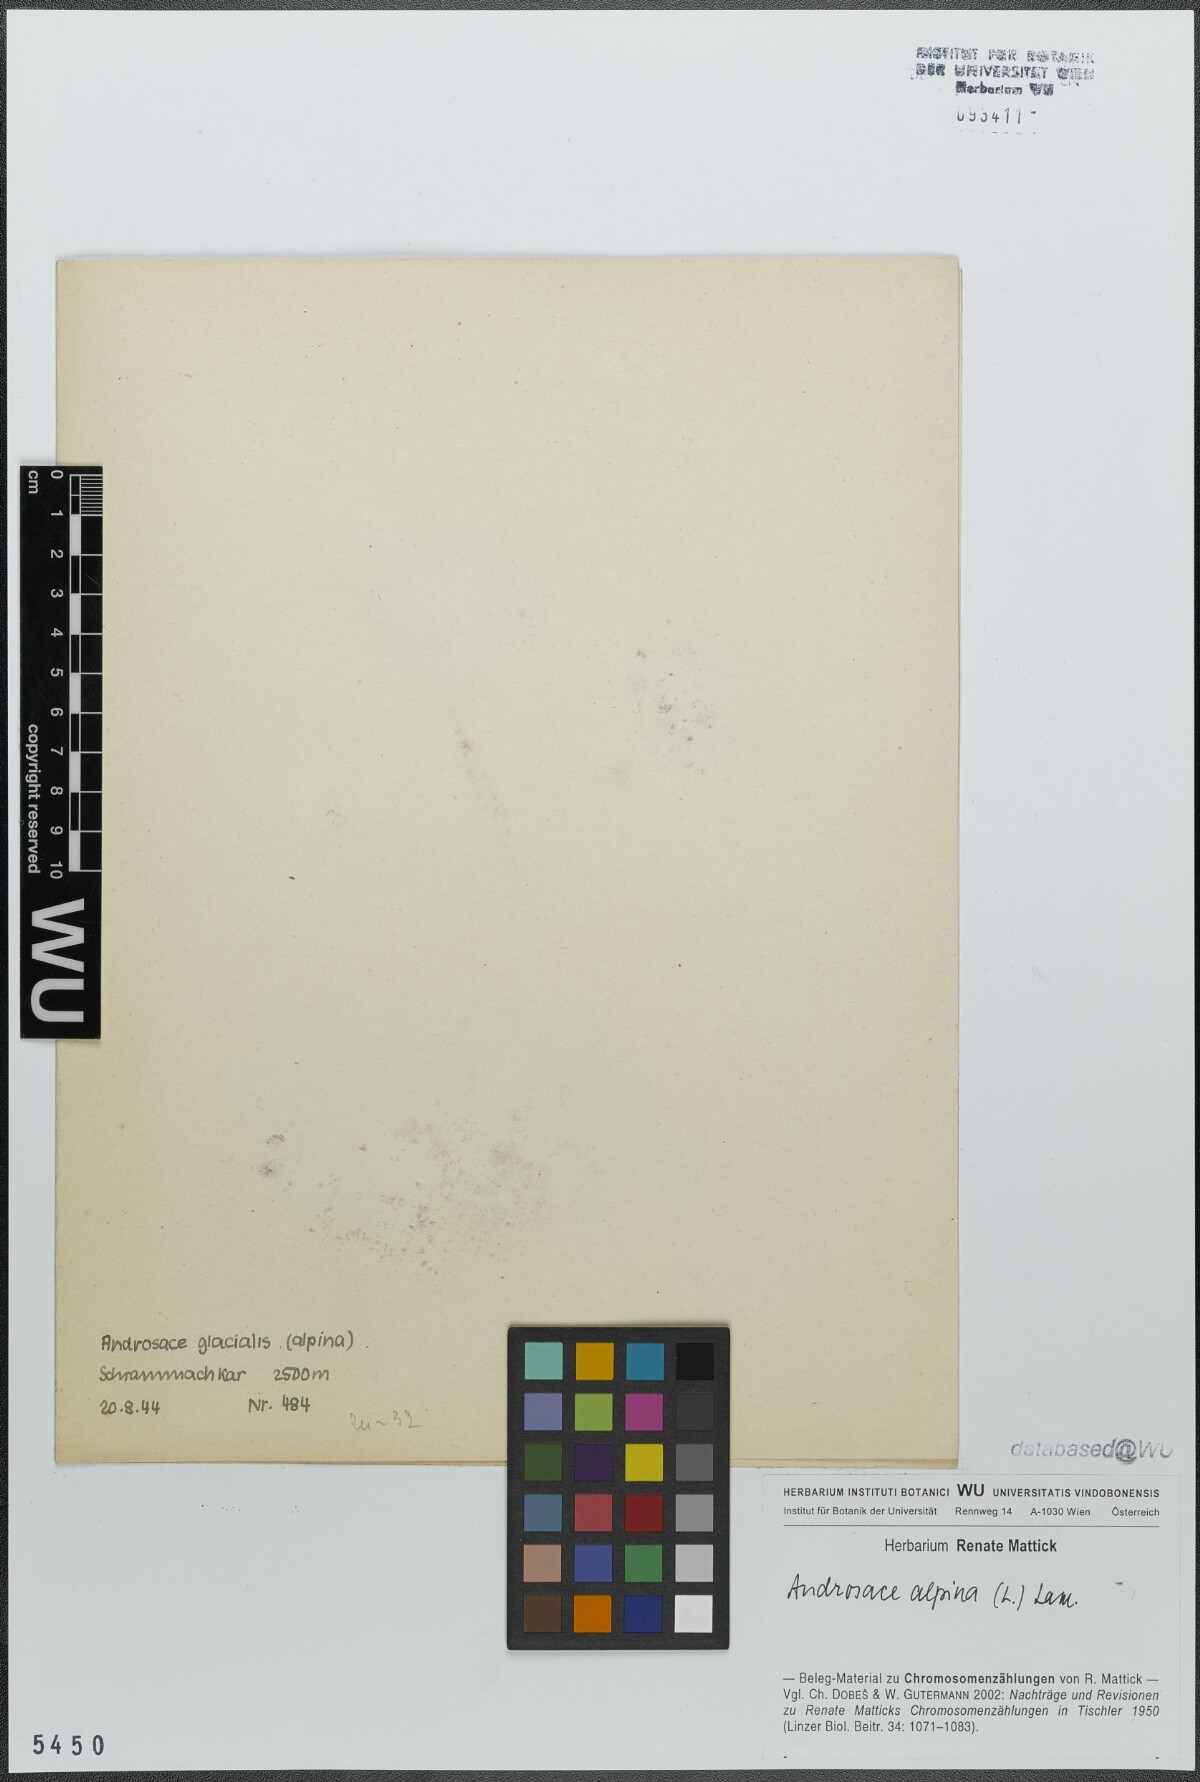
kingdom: Plantae
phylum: Tracheophyta
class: Magnoliopsida
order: Ericales
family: Primulaceae
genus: Androsace
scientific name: Androsace alpina
